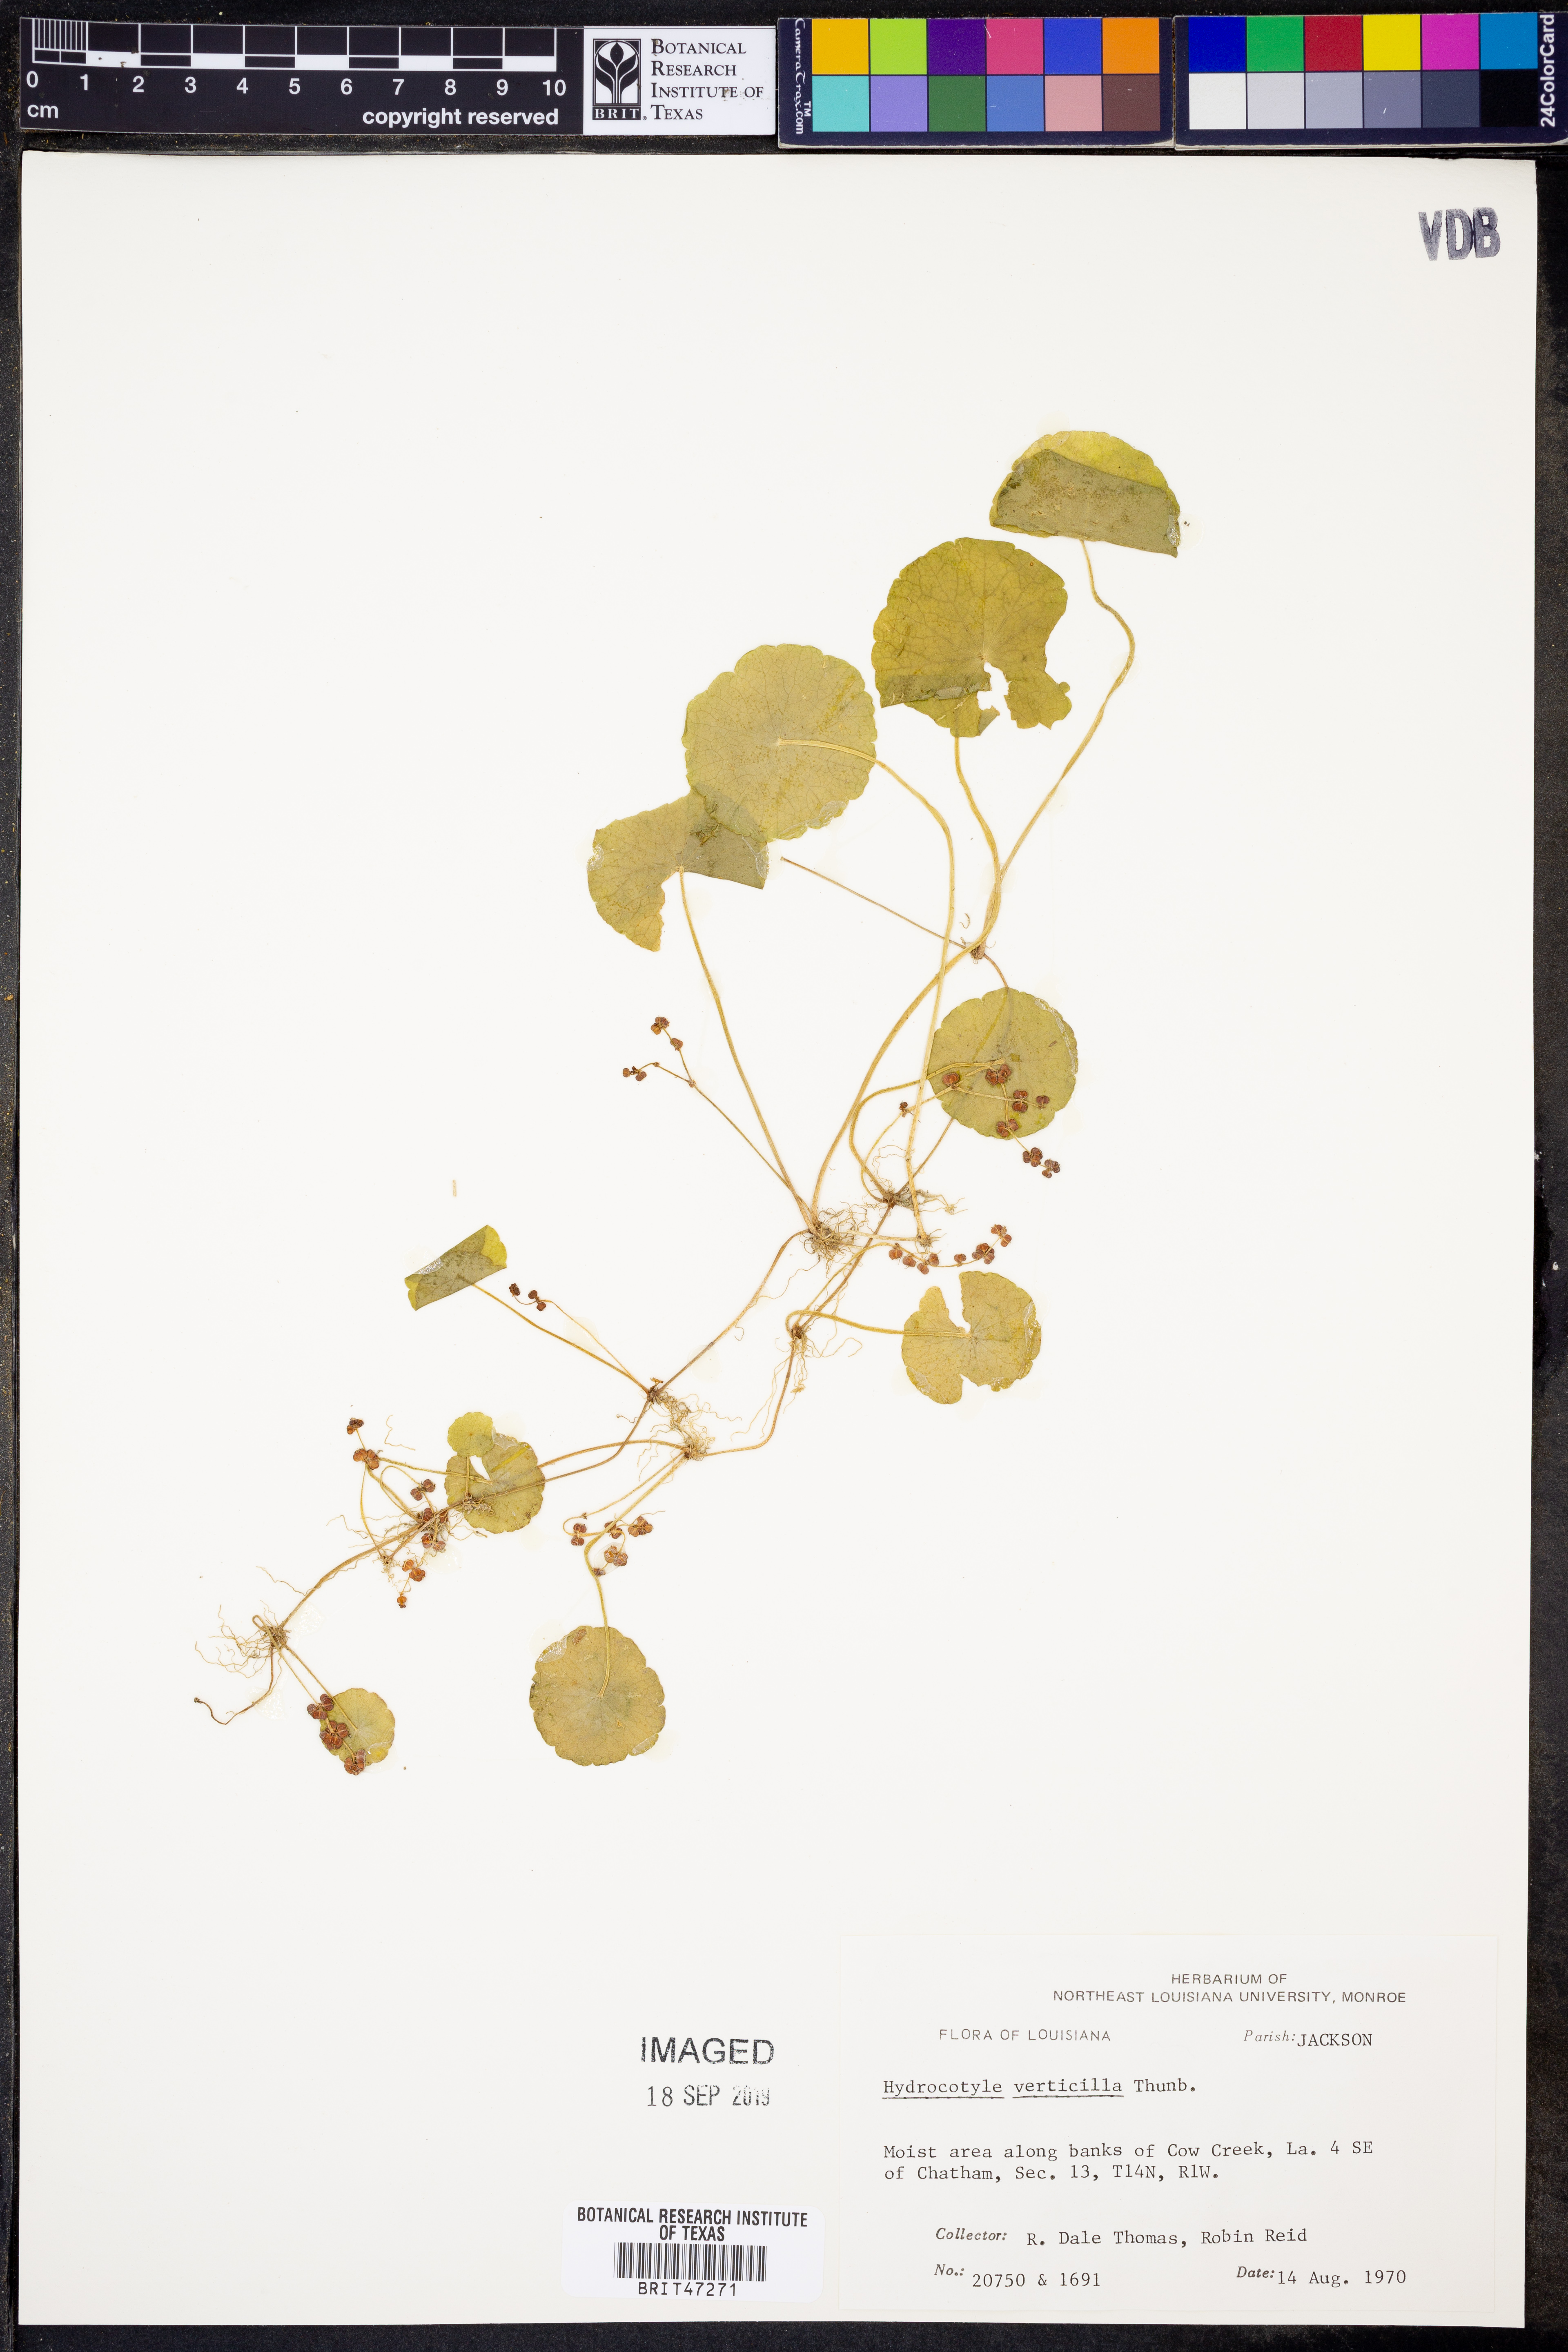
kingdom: Plantae
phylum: Tracheophyta
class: Magnoliopsida
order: Apiales
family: Araliaceae
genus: Hydrocotyle
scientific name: Hydrocotyle verticillata
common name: Whorled marshpennywort
